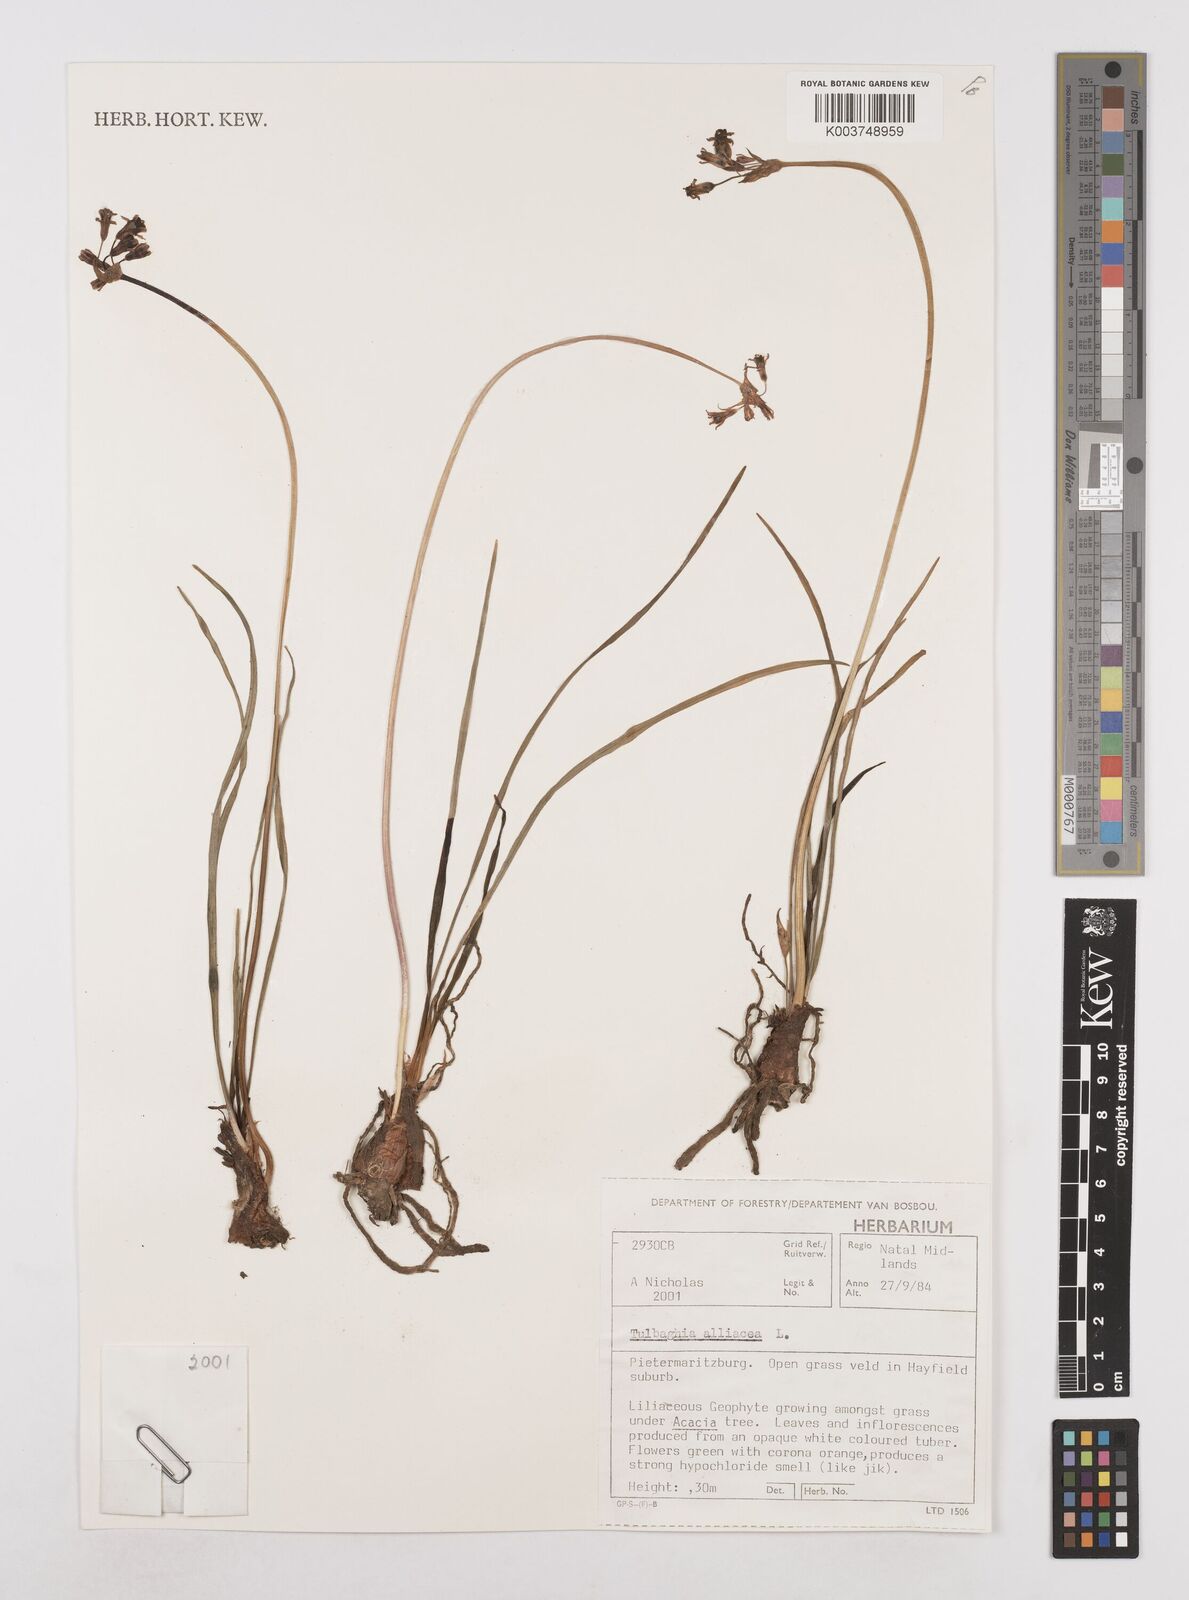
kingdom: Plantae
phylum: Tracheophyta
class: Liliopsida
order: Asparagales
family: Amaryllidaceae
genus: Tulbaghia
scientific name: Tulbaghia alliacea
